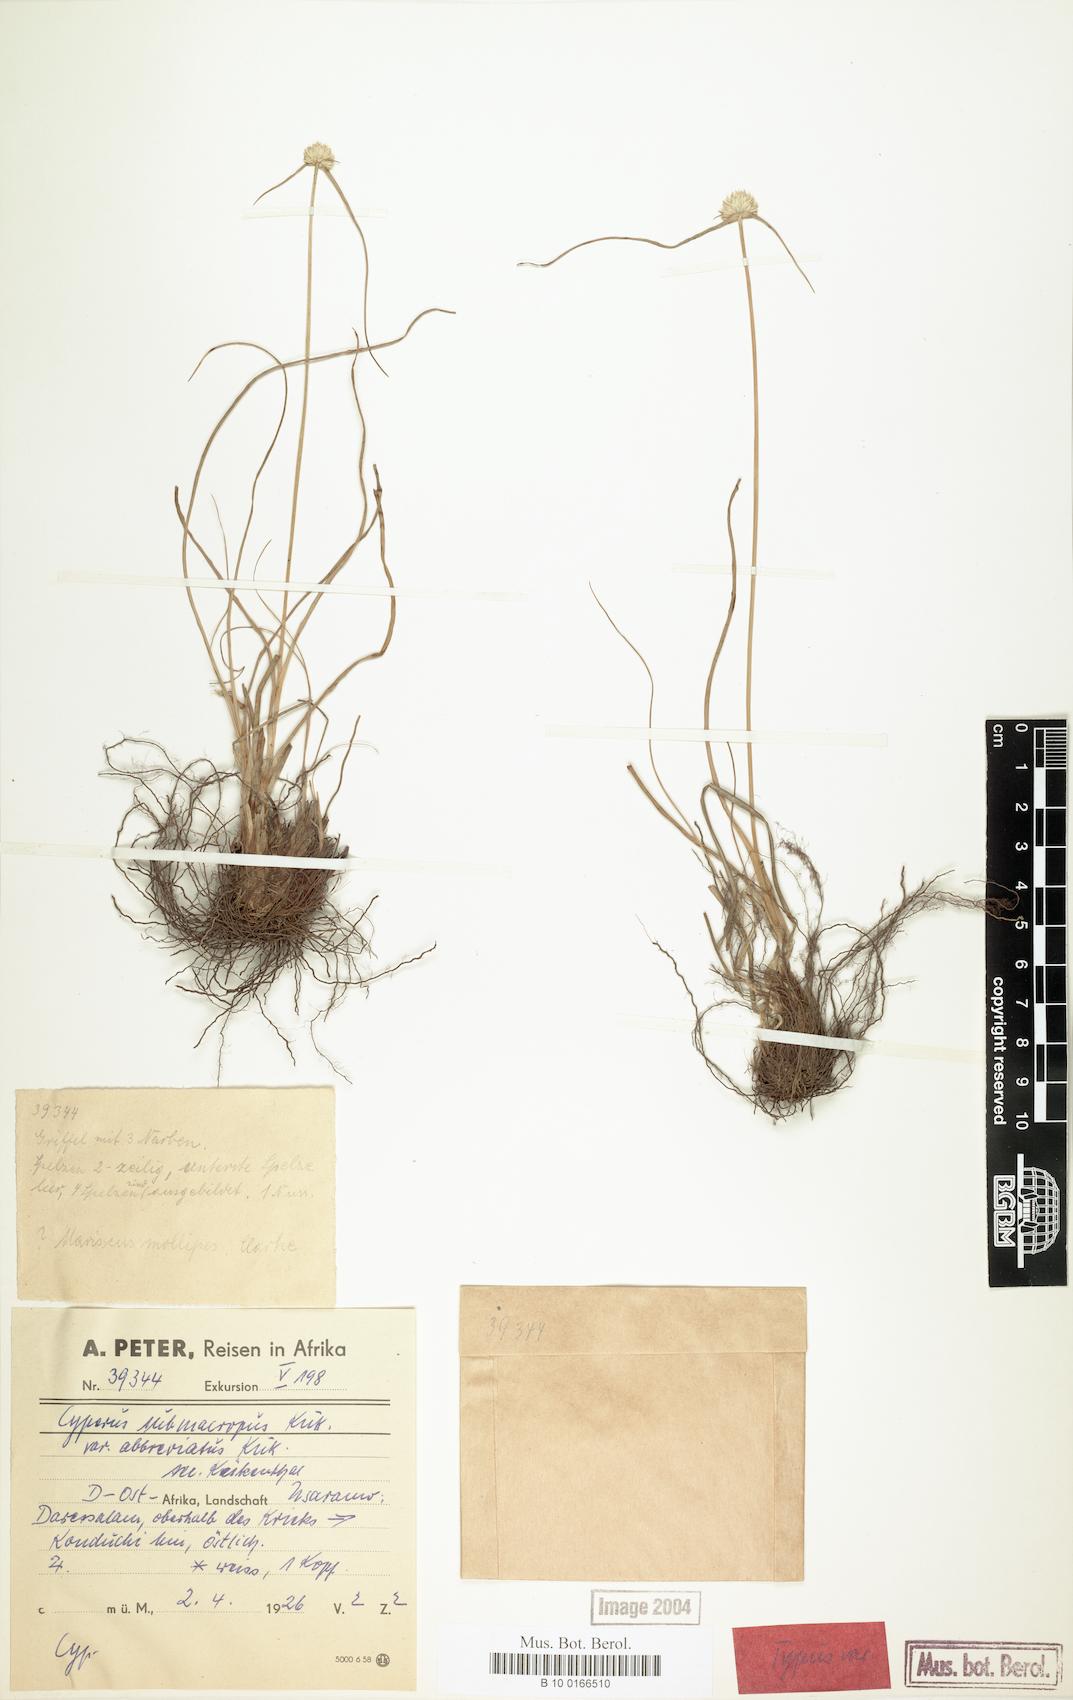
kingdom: Plantae
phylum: Tracheophyta
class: Liliopsida
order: Poales
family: Cyperaceae
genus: Cyperus
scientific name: Cyperus mollipes
